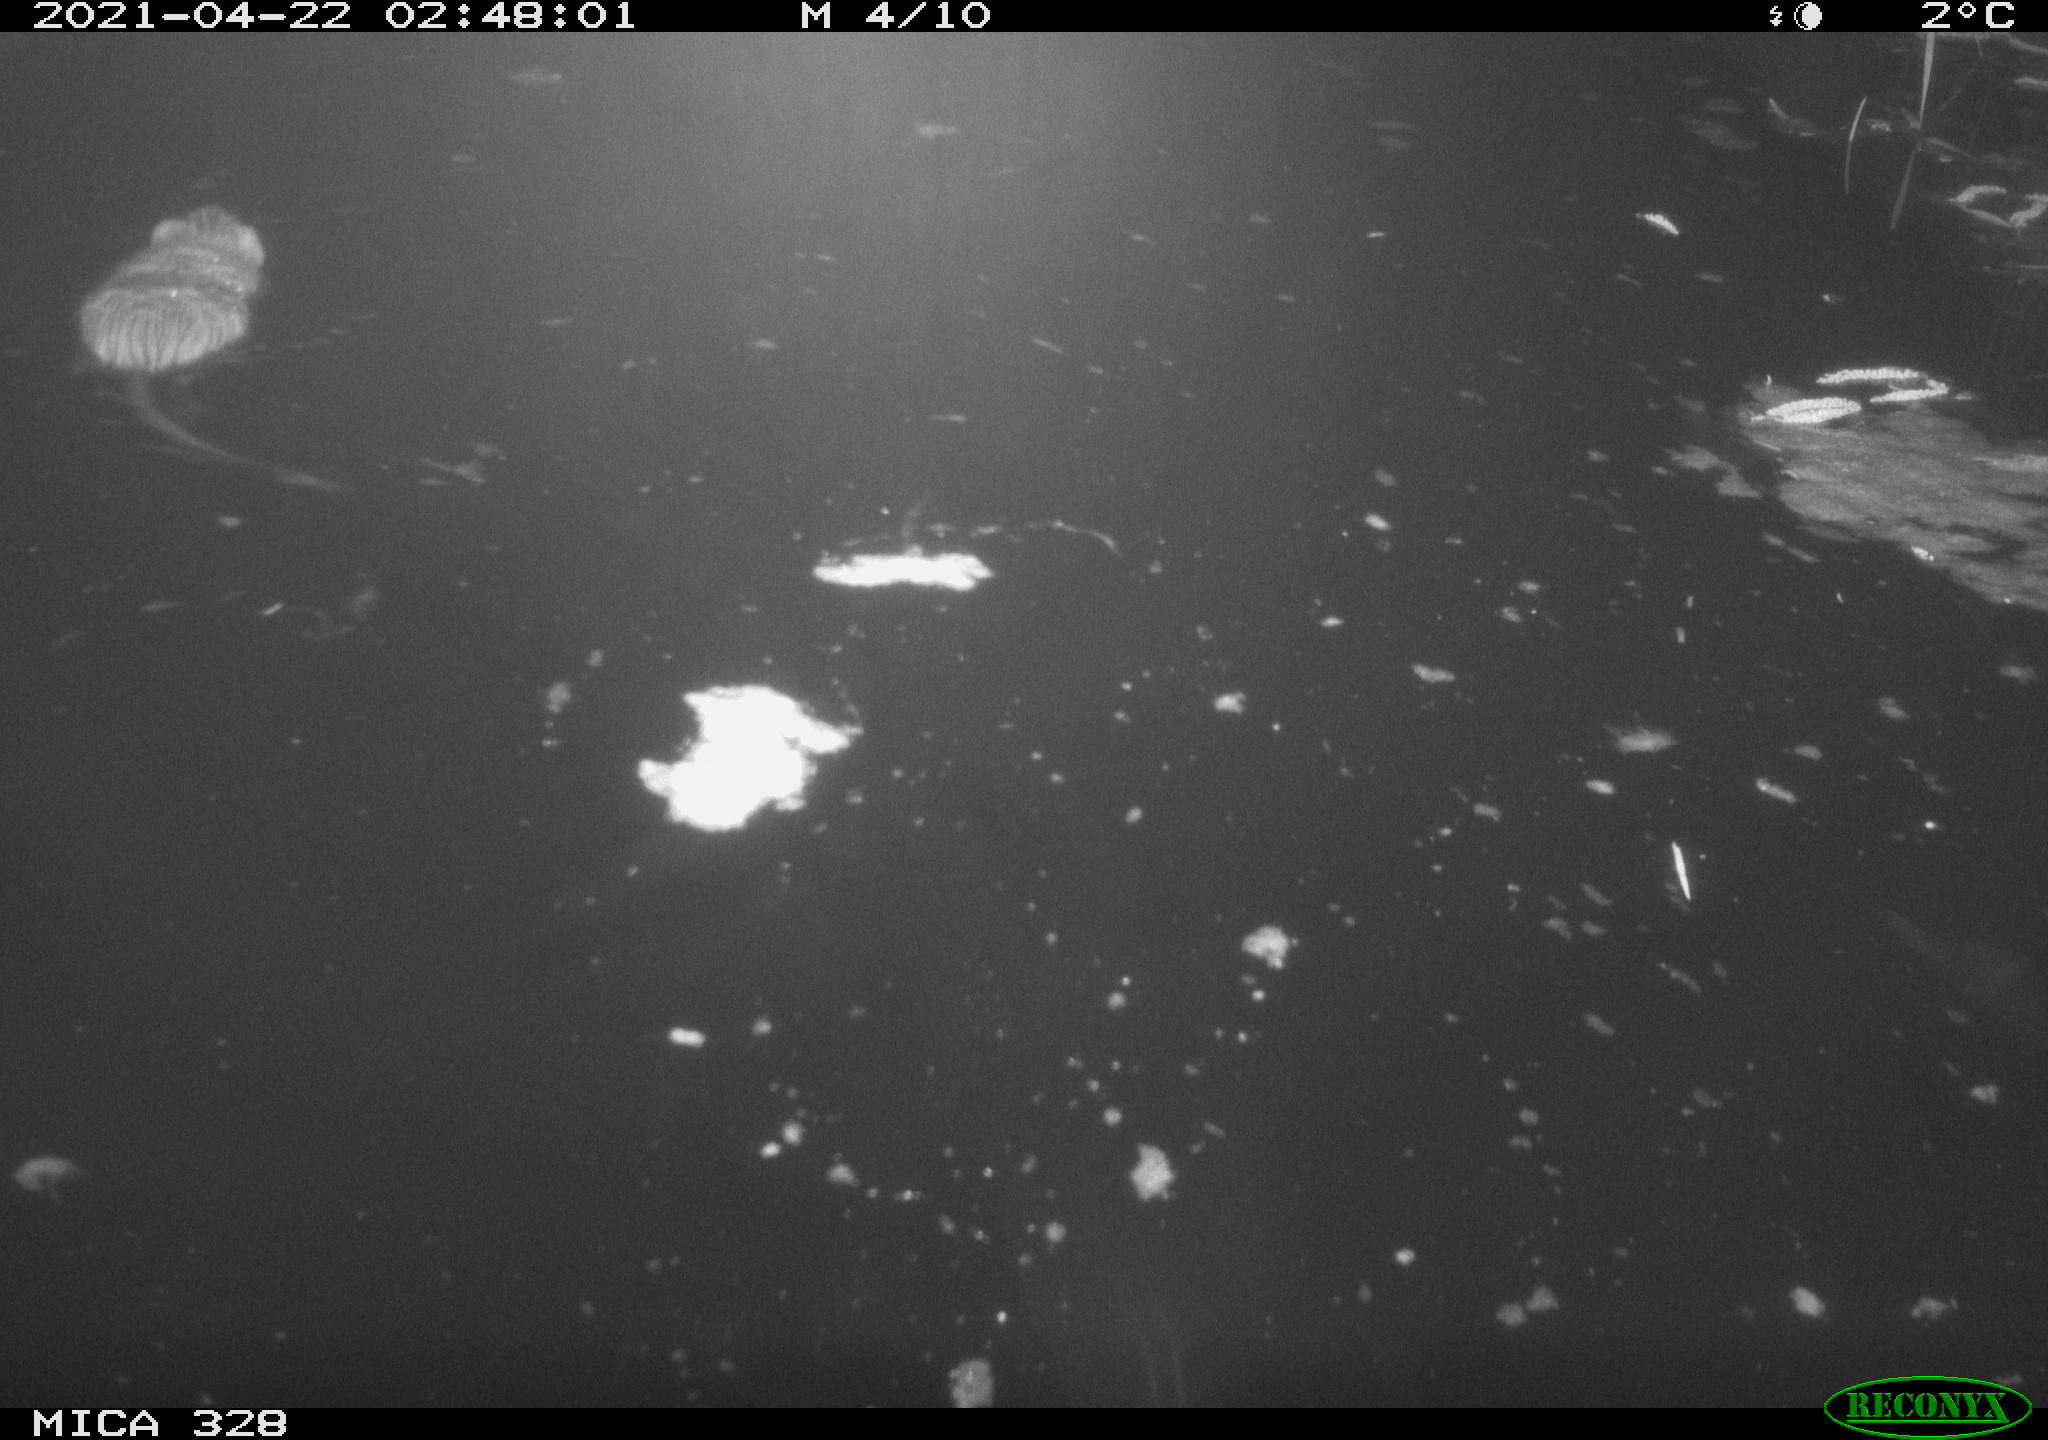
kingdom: Animalia
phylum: Chordata
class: Mammalia
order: Rodentia
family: Cricetidae
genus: Ondatra
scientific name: Ondatra zibethicus
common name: Muskrat
